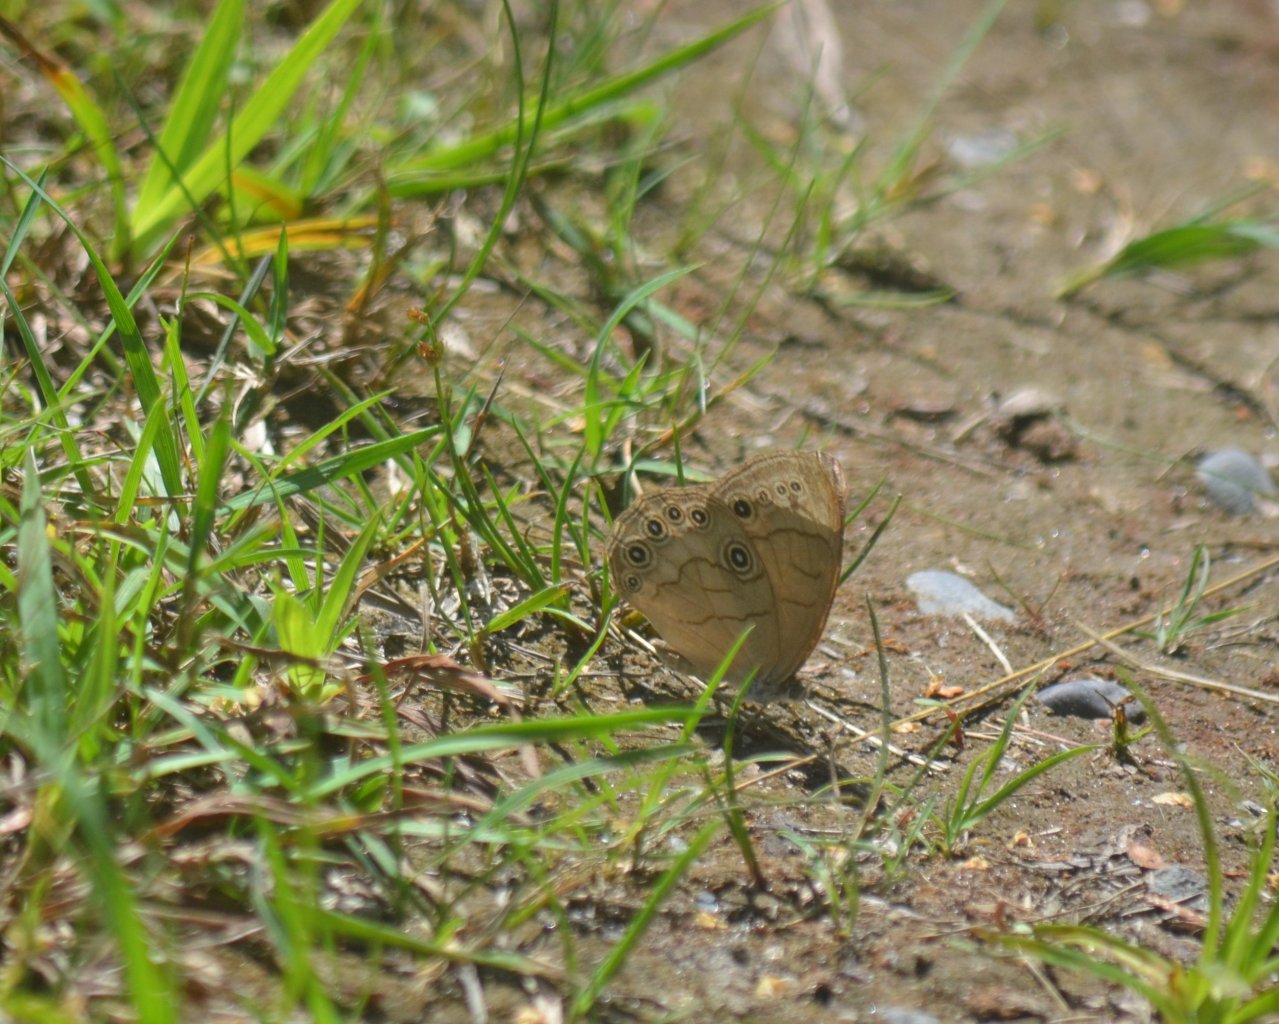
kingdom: Animalia
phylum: Arthropoda
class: Insecta
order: Lepidoptera
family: Nymphalidae
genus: Lethe
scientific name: Lethe eurydice
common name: Appalachian Eyed Brown
